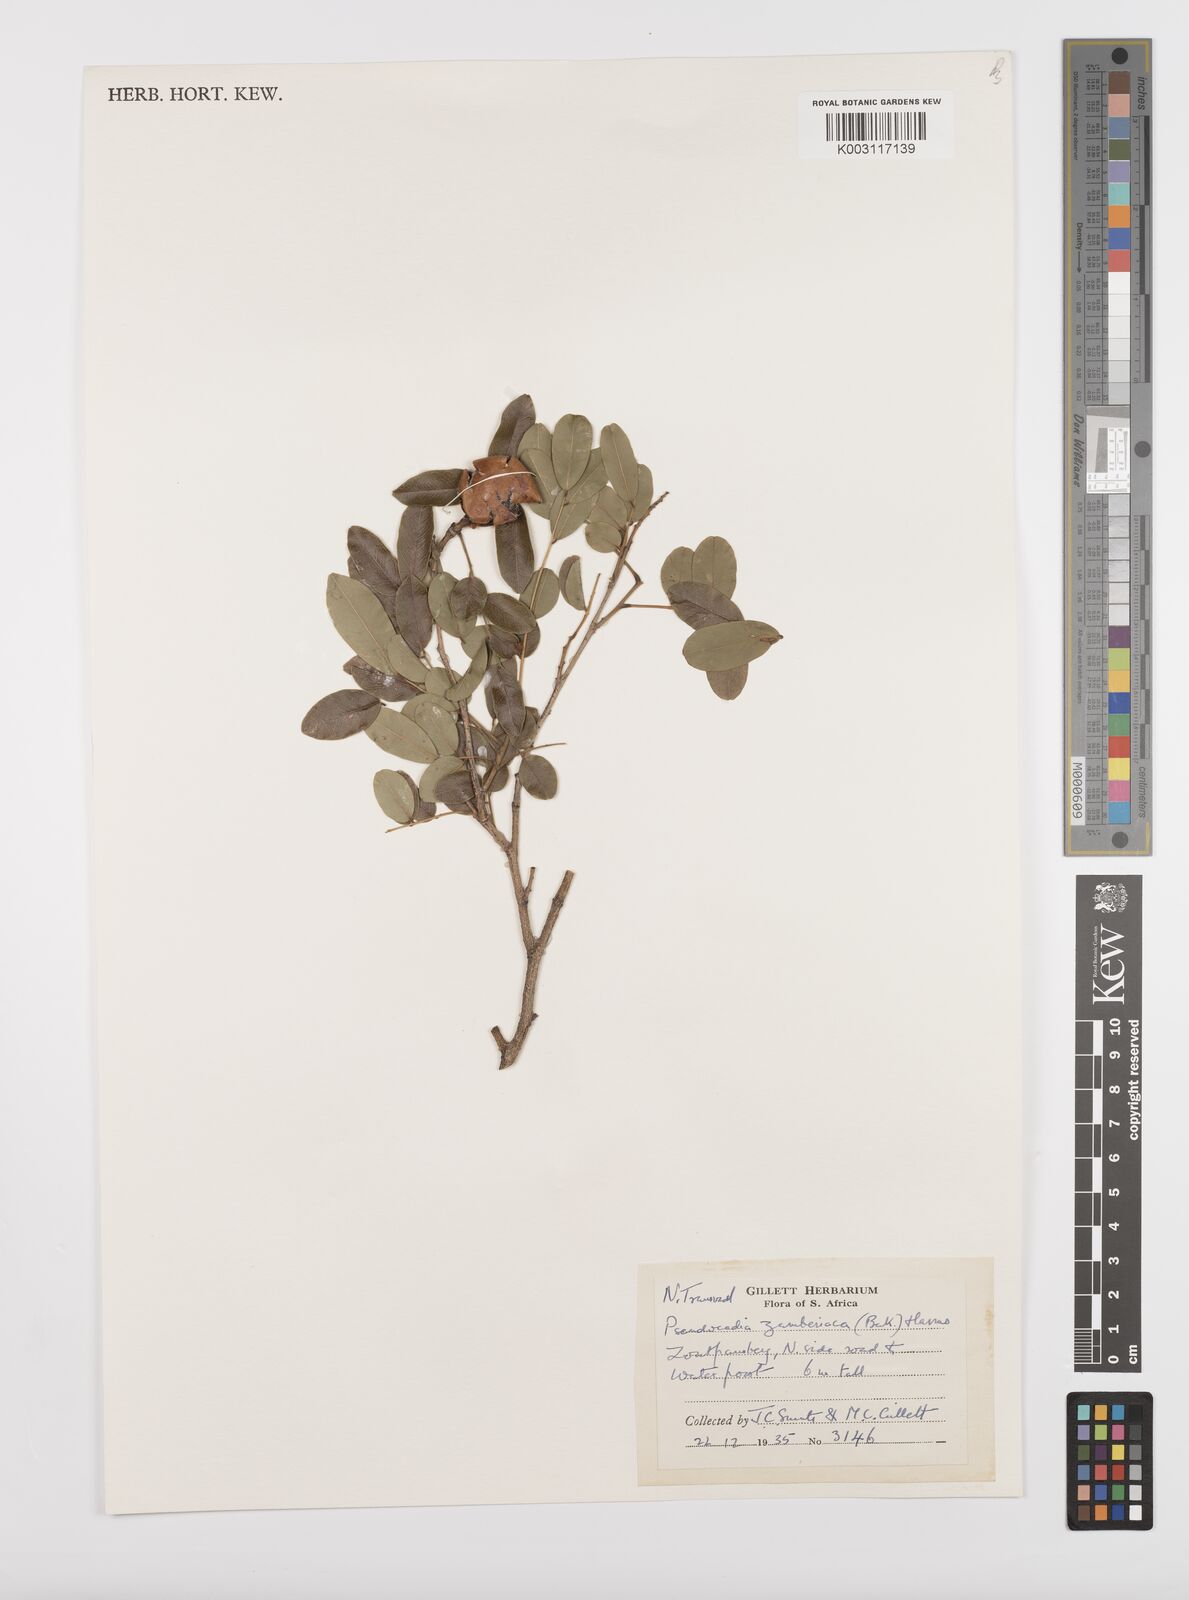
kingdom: Plantae
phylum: Tracheophyta
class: Magnoliopsida
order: Fabales
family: Fabaceae
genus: Xanthocercis
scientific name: Xanthocercis zambesiaca
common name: Nyala-tree
